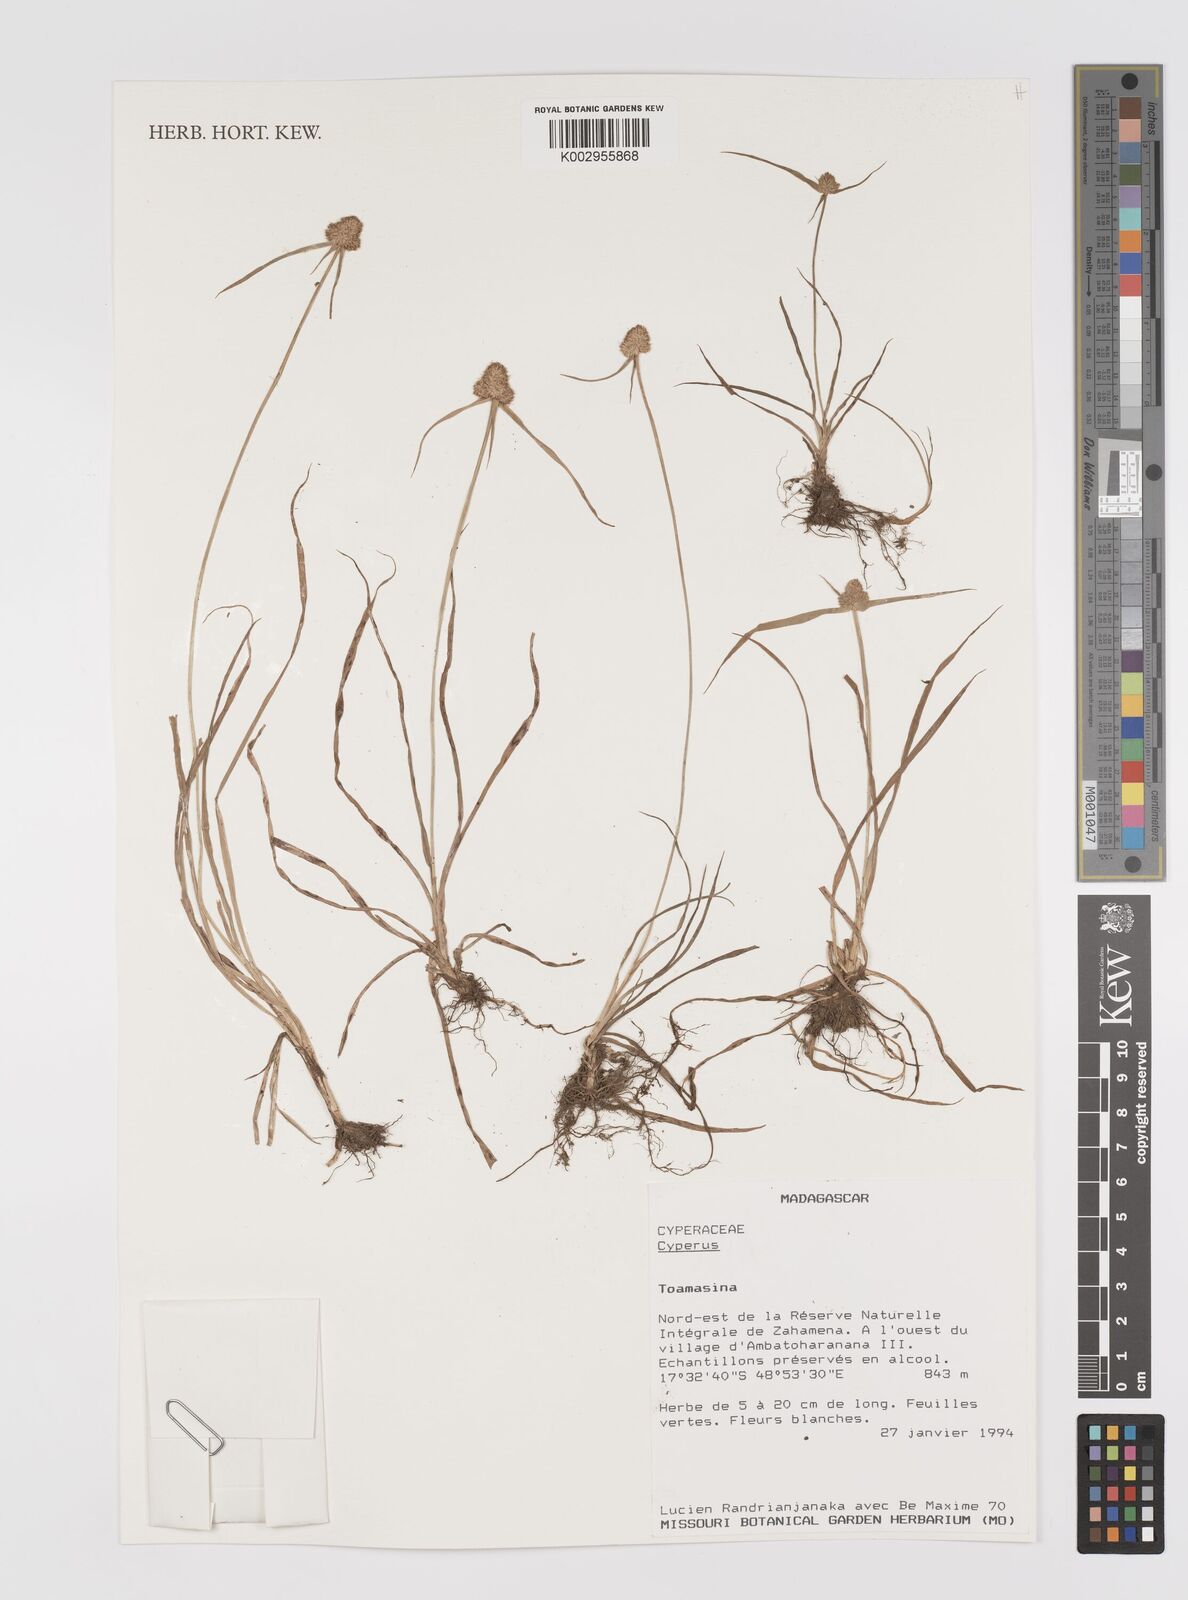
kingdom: Plantae
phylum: Tracheophyta
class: Liliopsida
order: Poales
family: Cyperaceae
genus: Cyperus
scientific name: Cyperus
